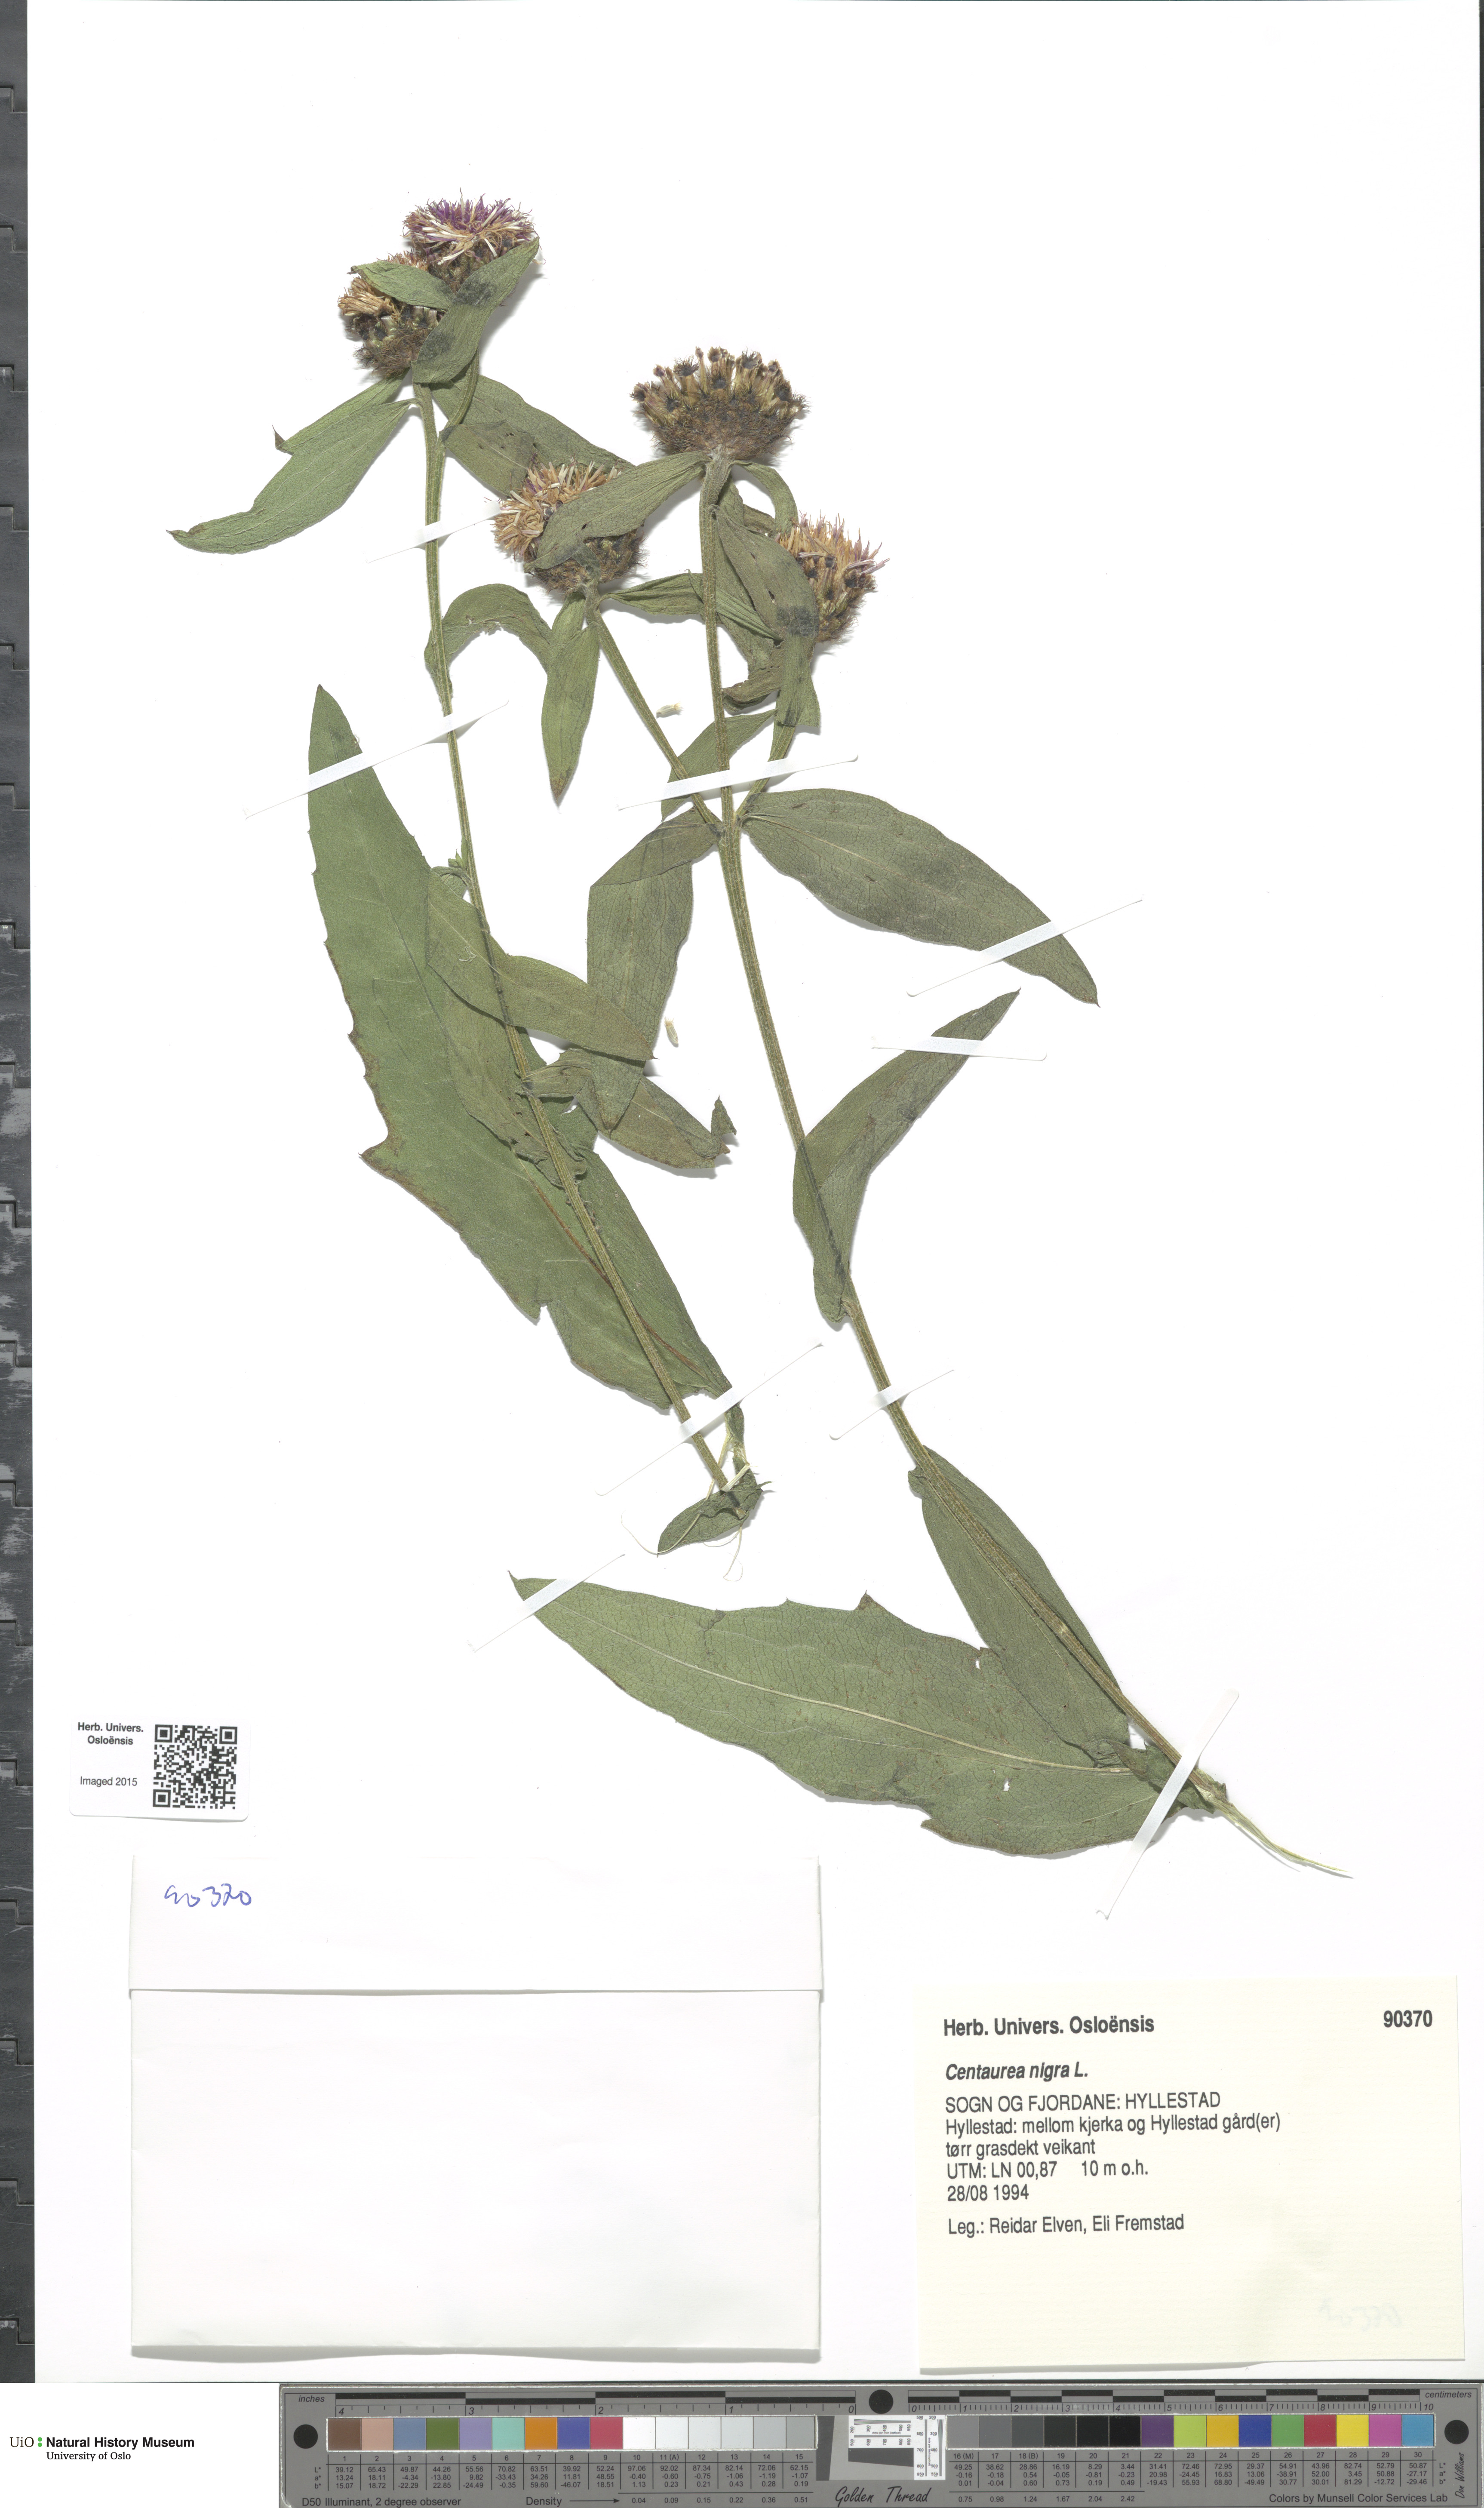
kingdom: Plantae
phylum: Tracheophyta
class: Magnoliopsida
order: Asterales
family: Asteraceae
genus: Centaurea
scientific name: Centaurea nigra
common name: Lesser knapweed
